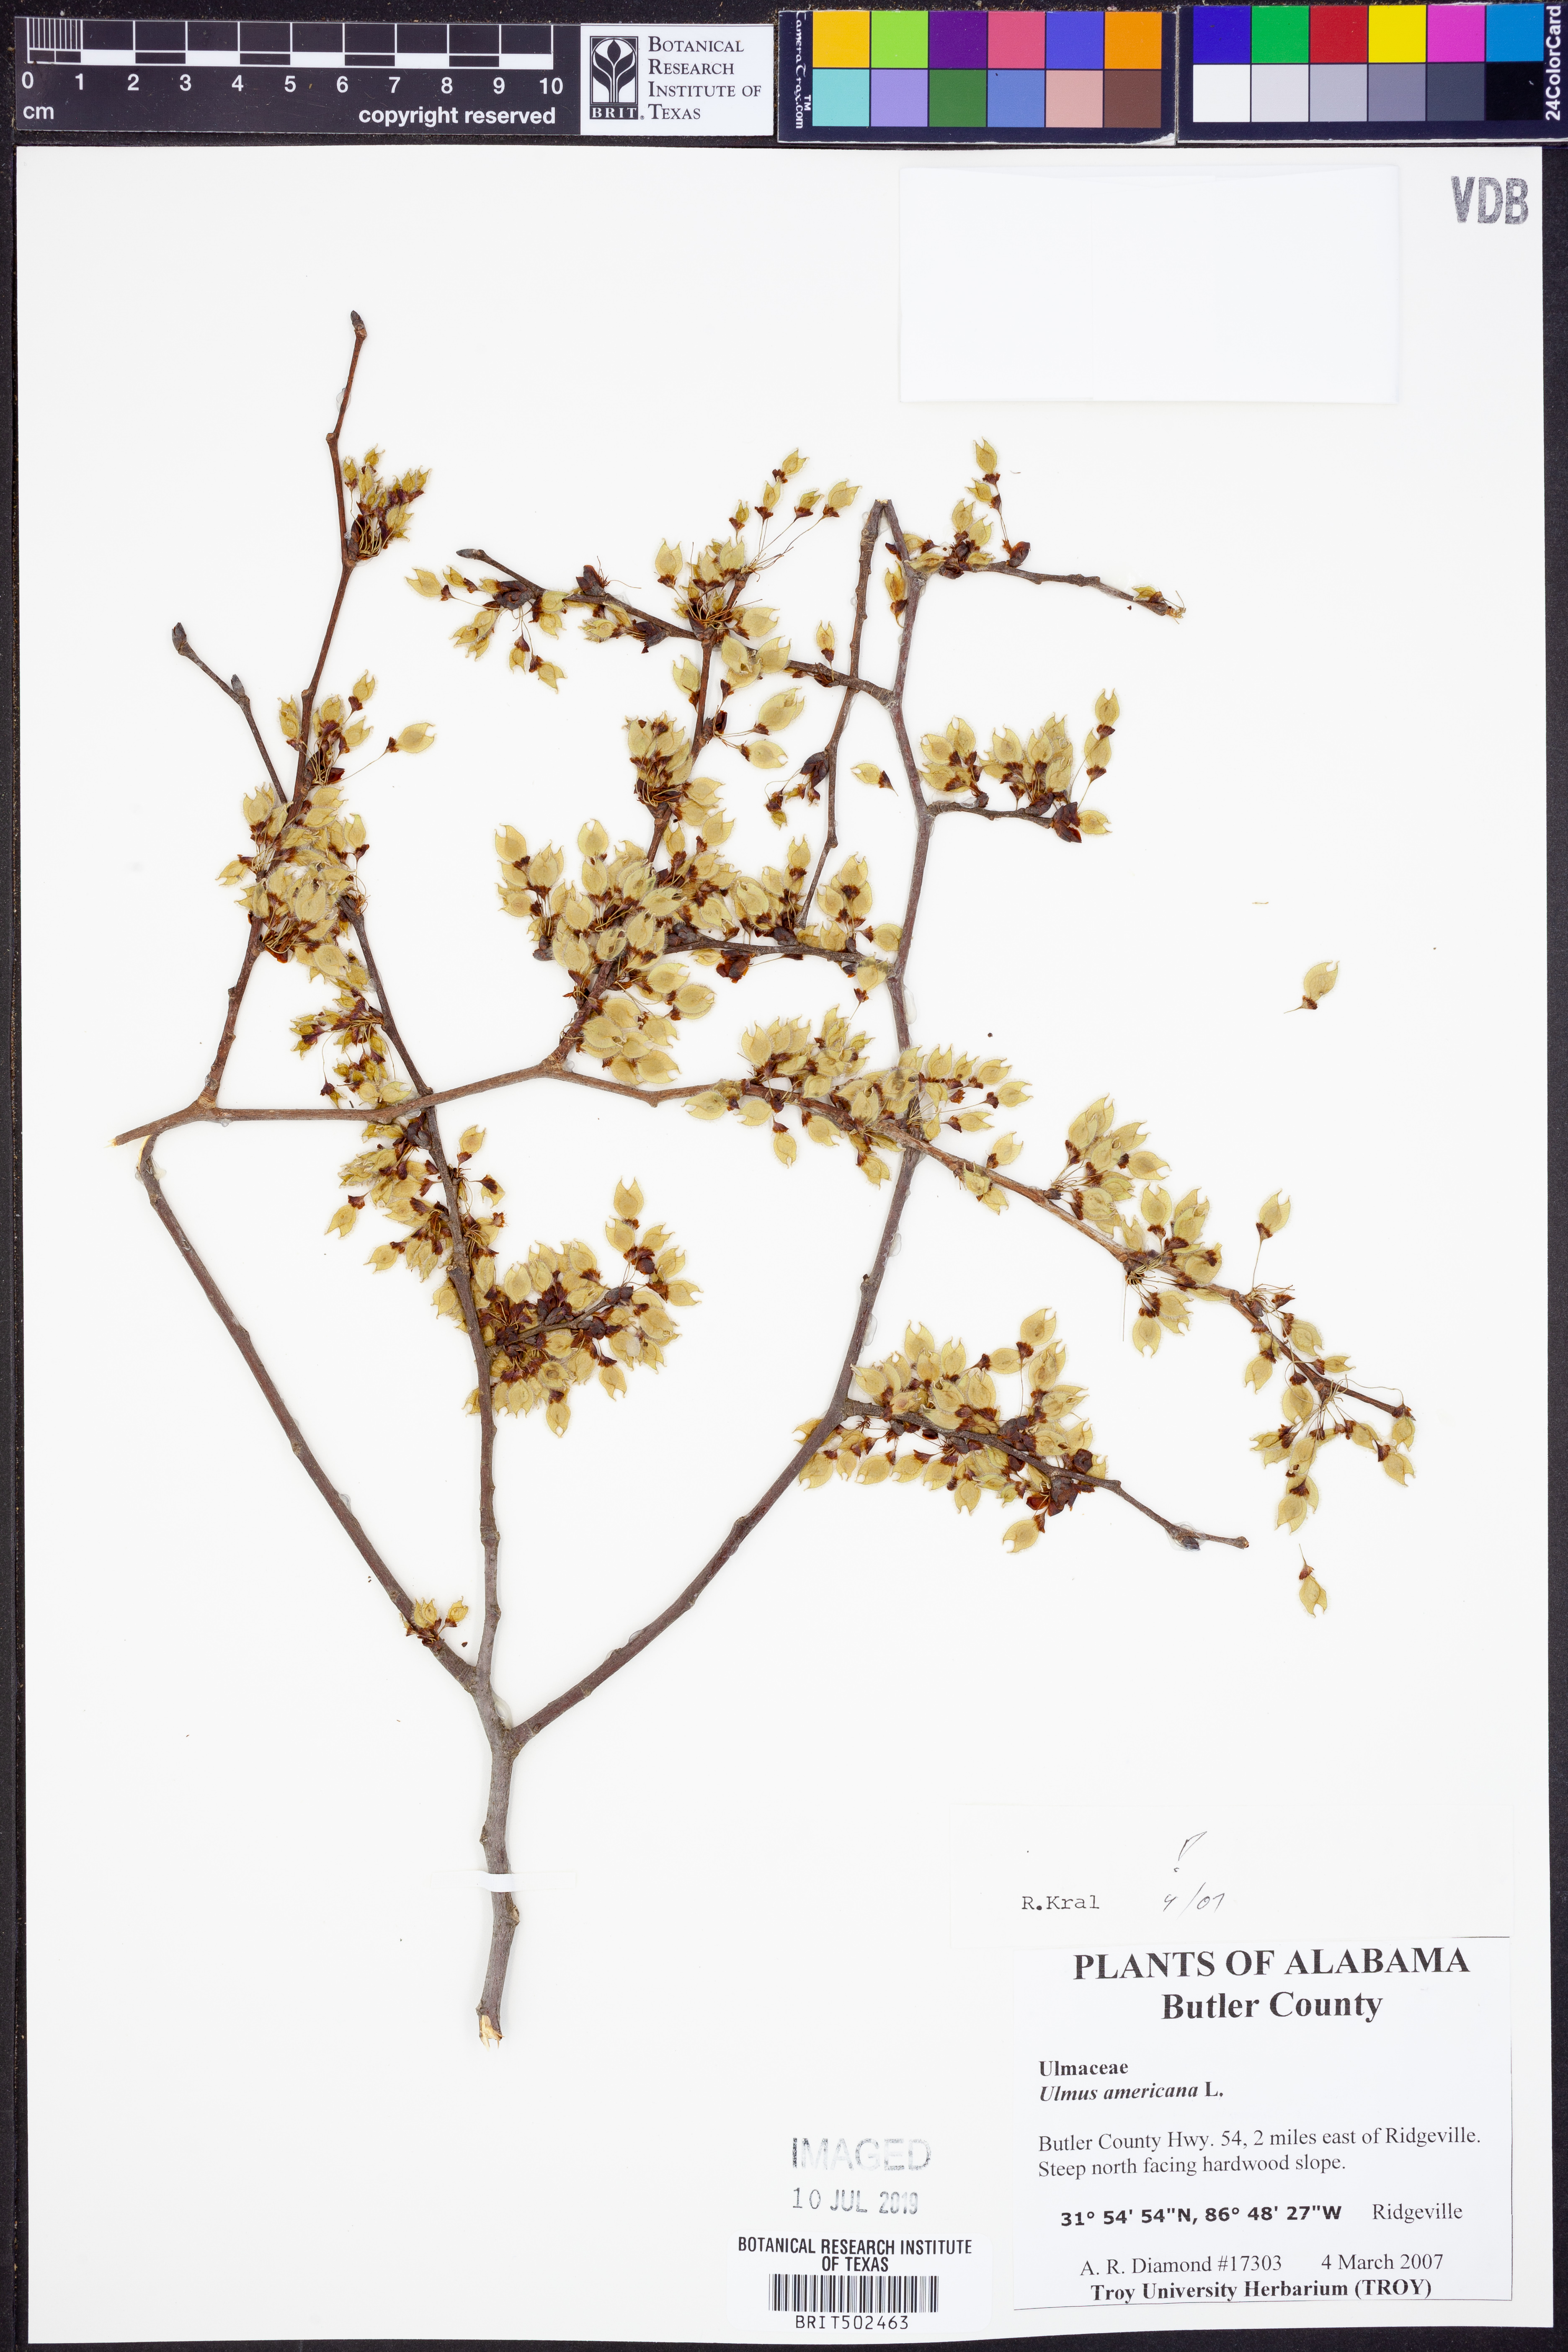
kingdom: Plantae
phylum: Tracheophyta
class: Magnoliopsida
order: Rosales
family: Ulmaceae
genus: Ulmus
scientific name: Ulmus americana
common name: American elm
